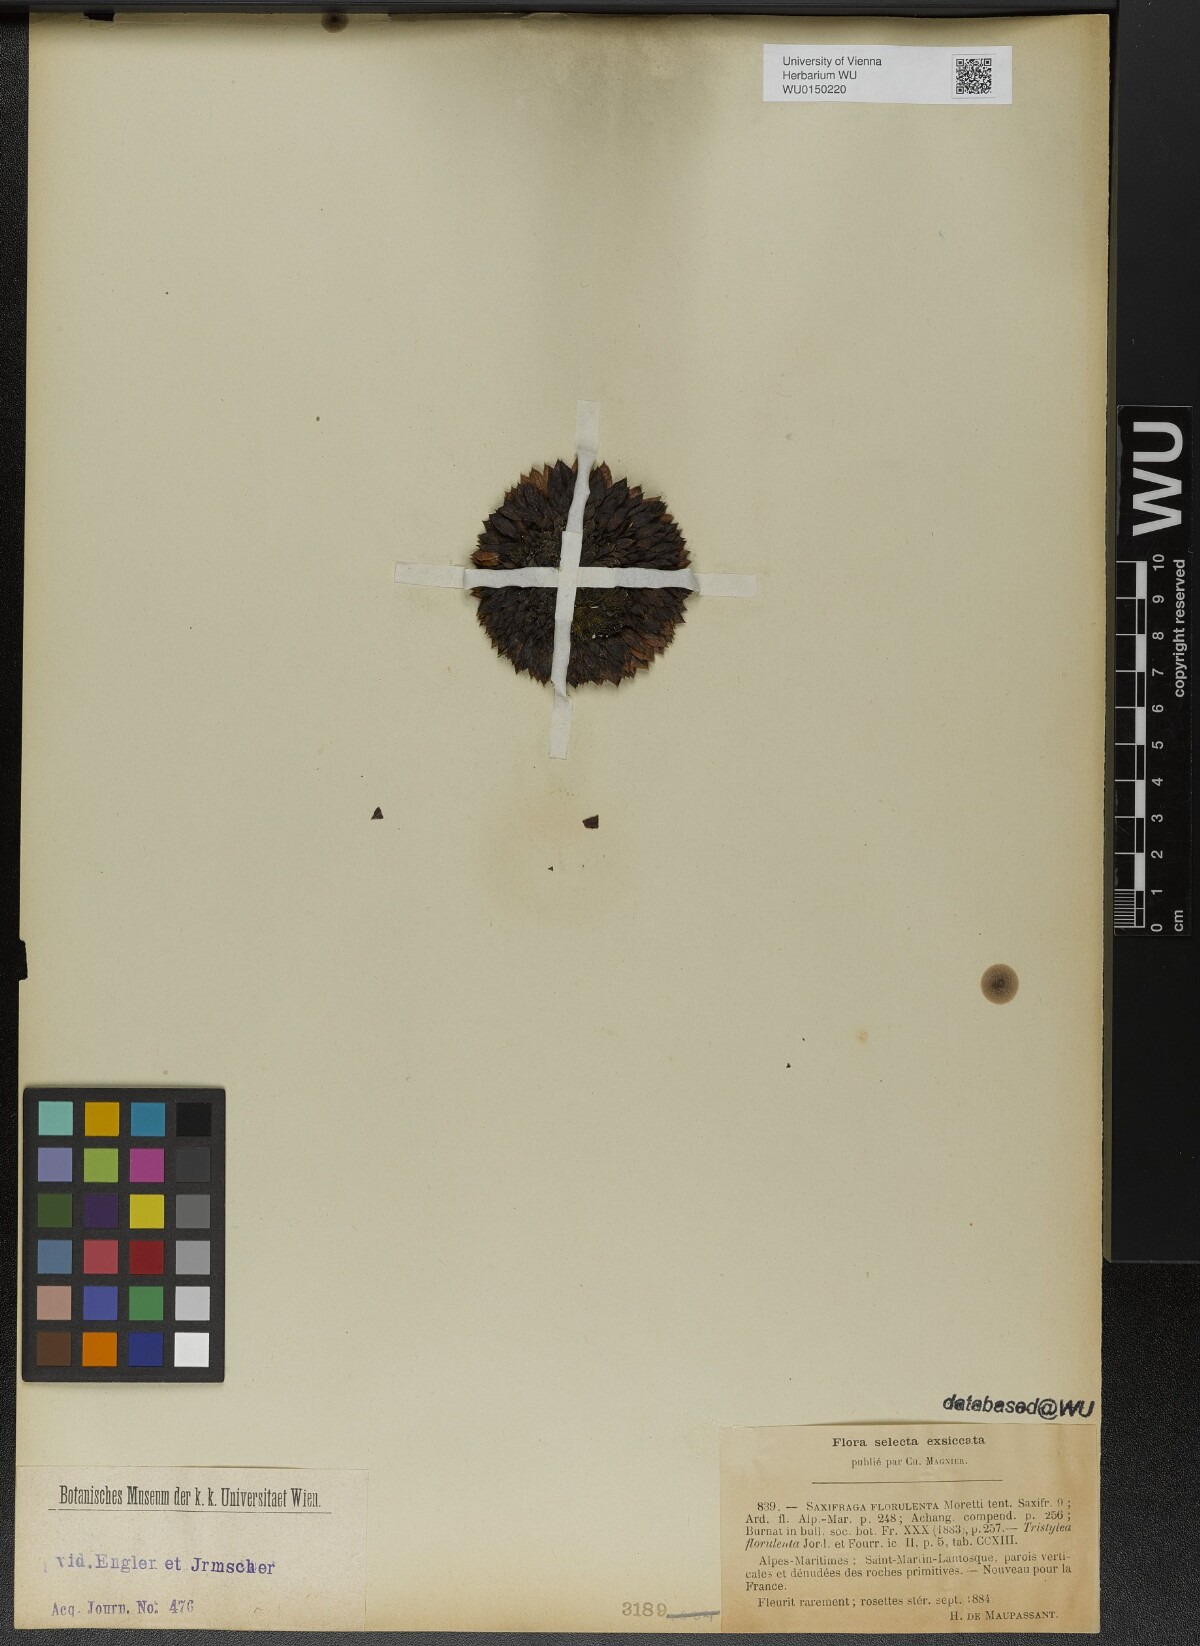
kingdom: Plantae
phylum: Tracheophyta
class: Magnoliopsida
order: Saxifragales
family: Saxifragaceae
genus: Saxifraga
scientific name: Saxifraga florulenta
